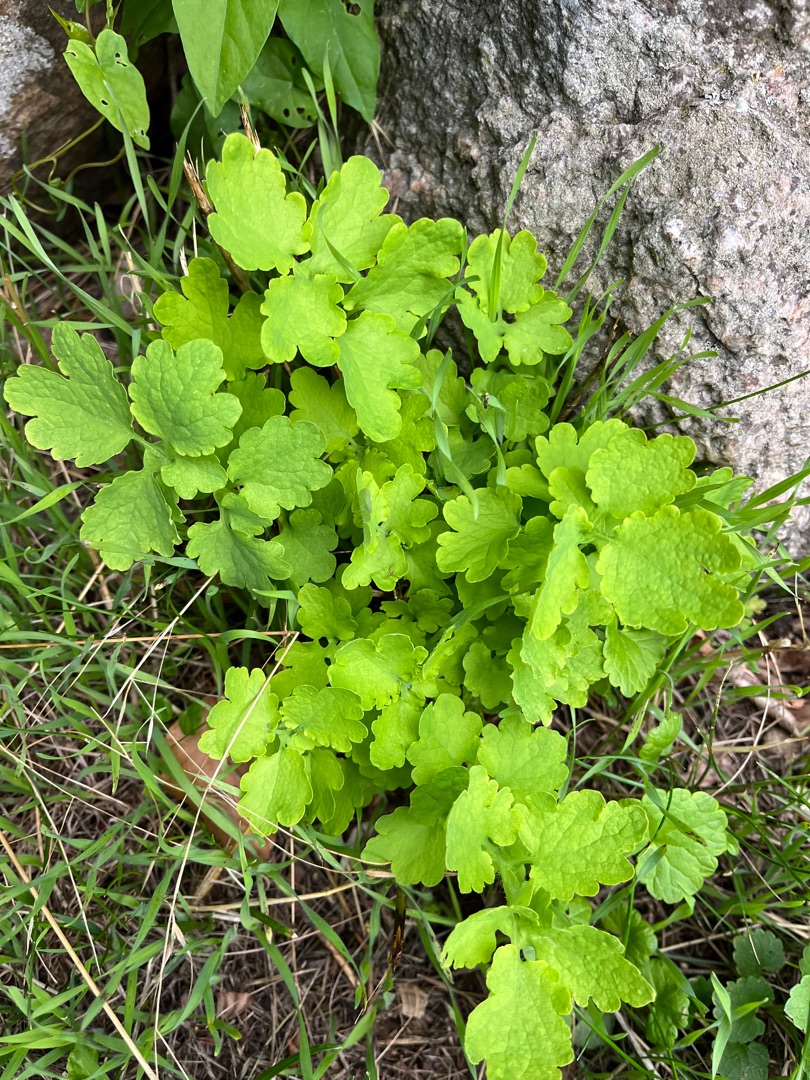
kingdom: Plantae
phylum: Tracheophyta
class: Magnoliopsida
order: Ranunculales
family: Papaveraceae
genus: Chelidonium
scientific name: Chelidonium majus
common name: Svaleurt
